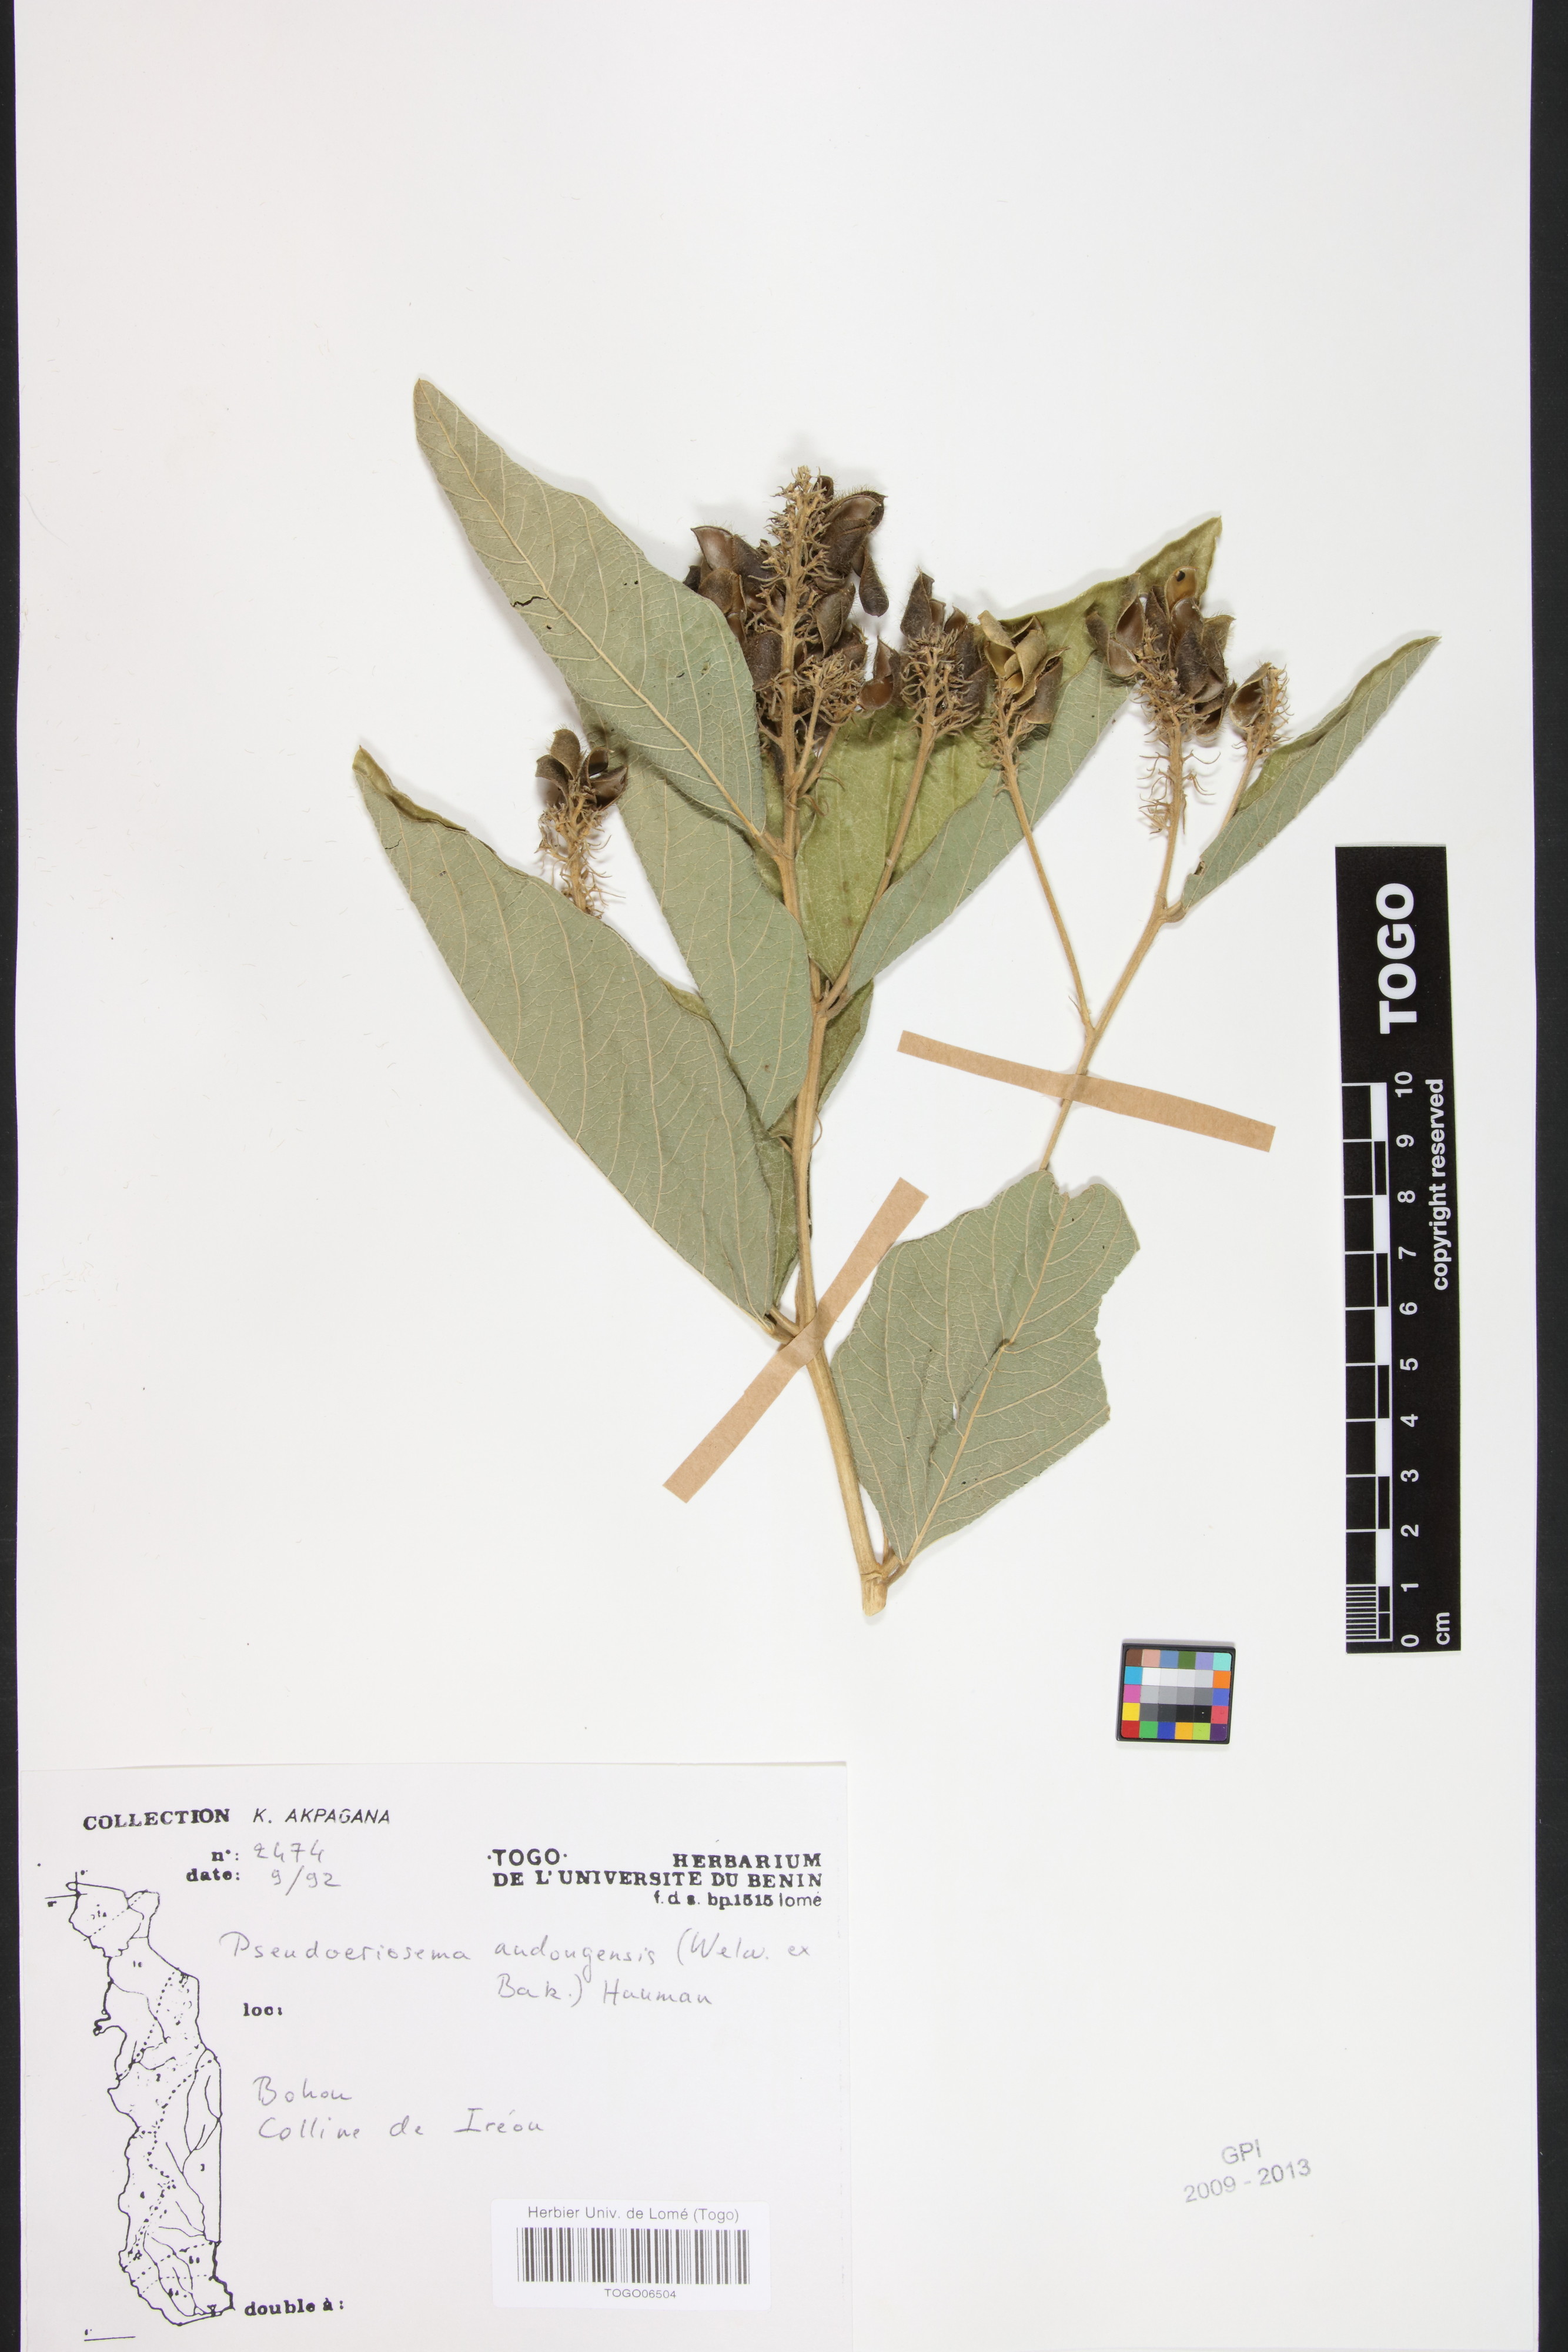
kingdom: Plantae
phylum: Tracheophyta
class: Magnoliopsida
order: Fabales
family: Fabaceae
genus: Pseudoeriosema
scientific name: Pseudoeriosema andongense
